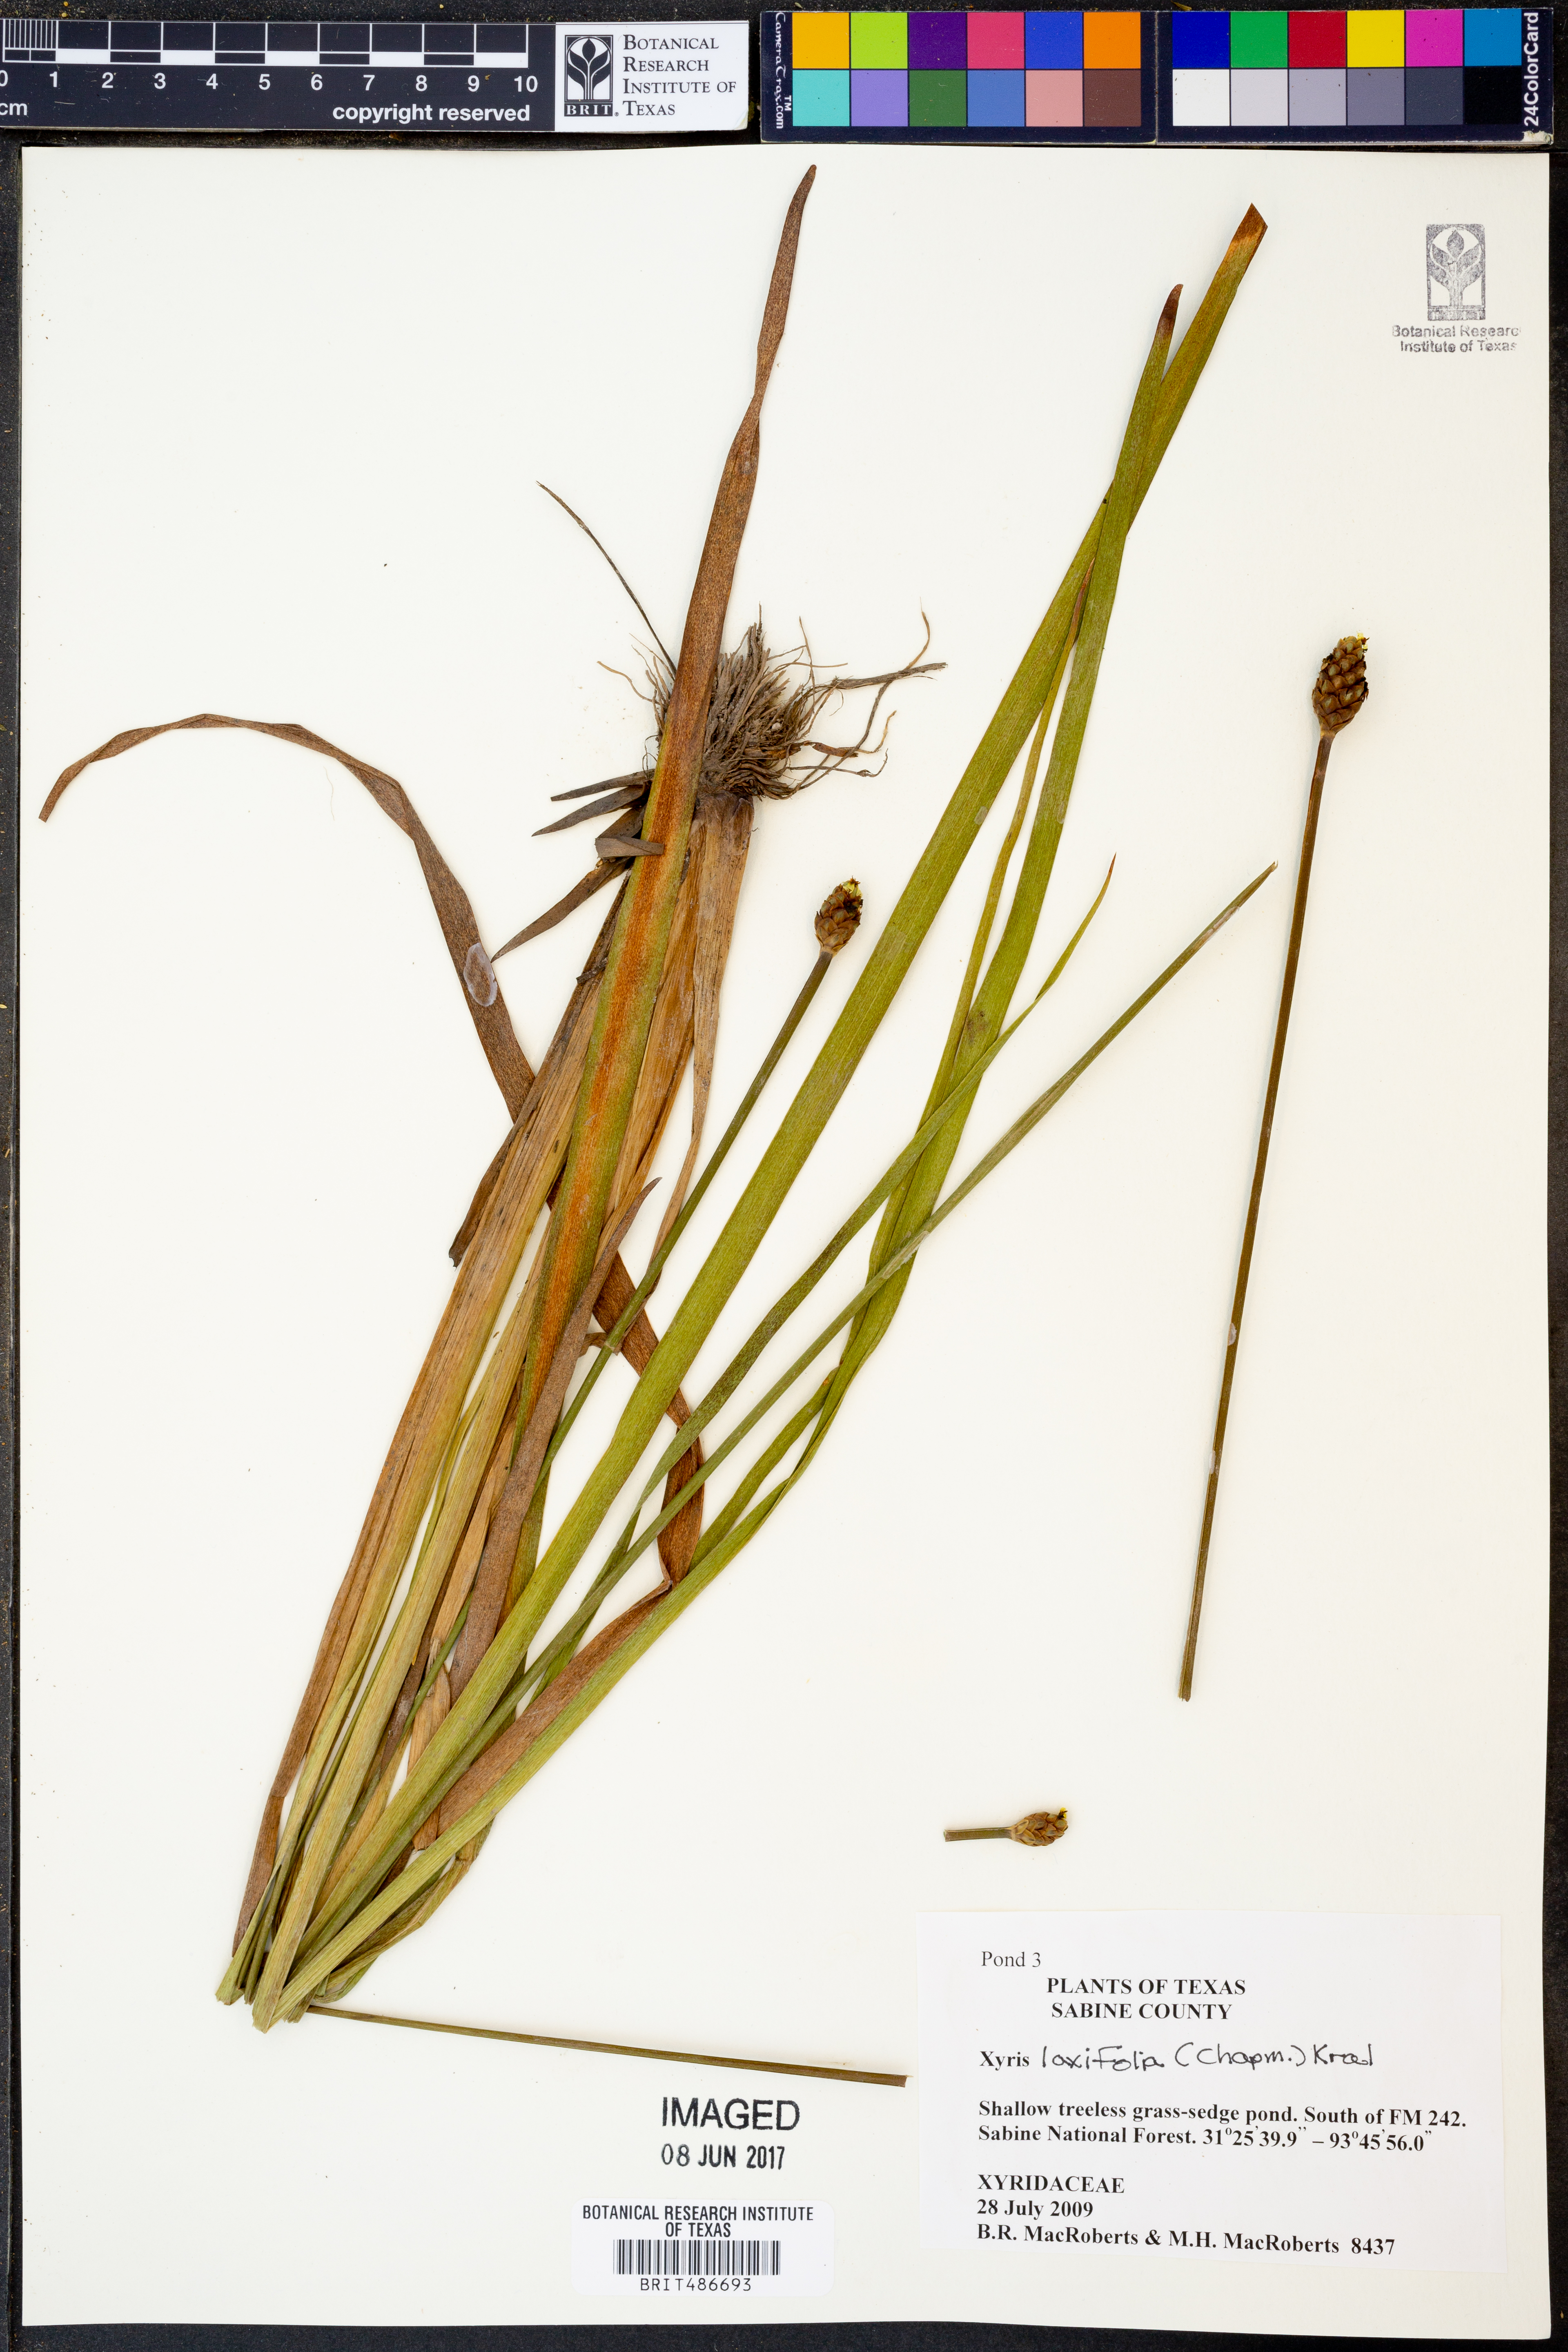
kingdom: Plantae
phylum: Tracheophyta
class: Liliopsida
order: Poales
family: Xyridaceae
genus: Xyris
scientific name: Xyris laxifolia
